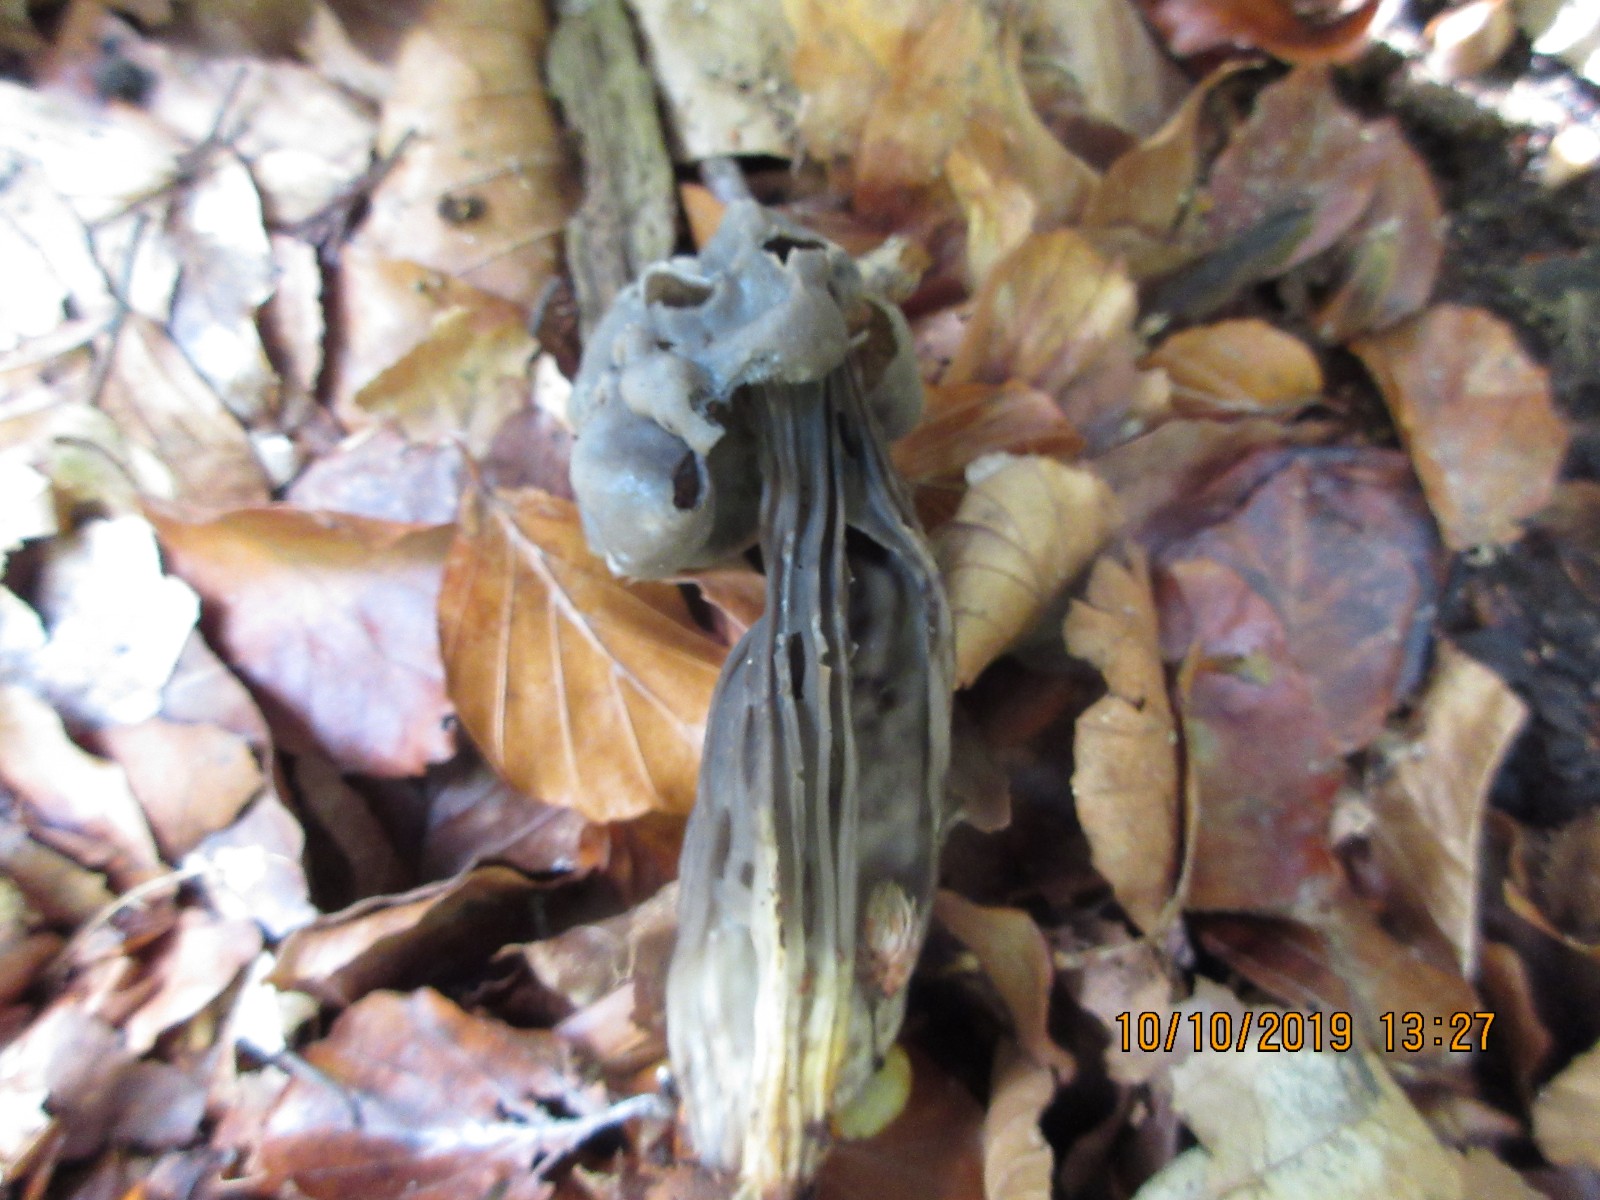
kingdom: Fungi
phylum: Ascomycota
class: Pezizomycetes
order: Pezizales
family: Helvellaceae
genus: Helvella
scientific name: Helvella lacunosa
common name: grubet foldhat
